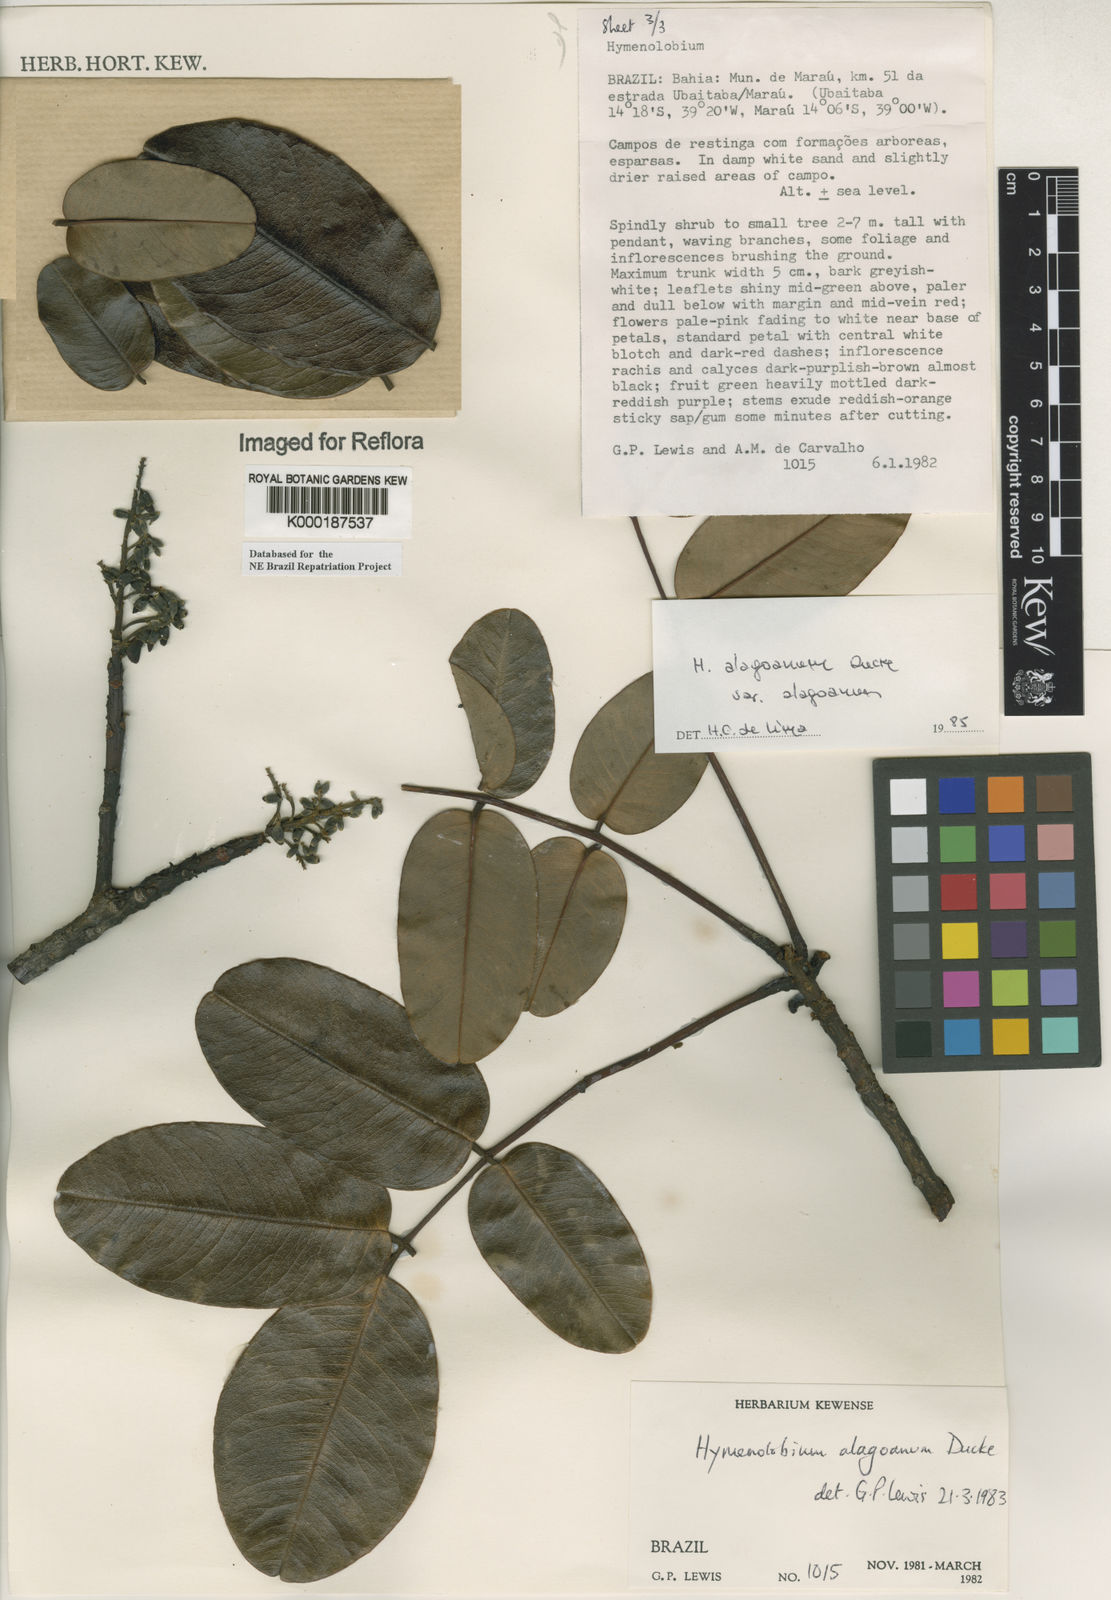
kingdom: Plantae
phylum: Tracheophyta
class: Magnoliopsida
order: Fabales
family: Fabaceae
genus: Hymenolobium
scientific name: Hymenolobium alagoanum
